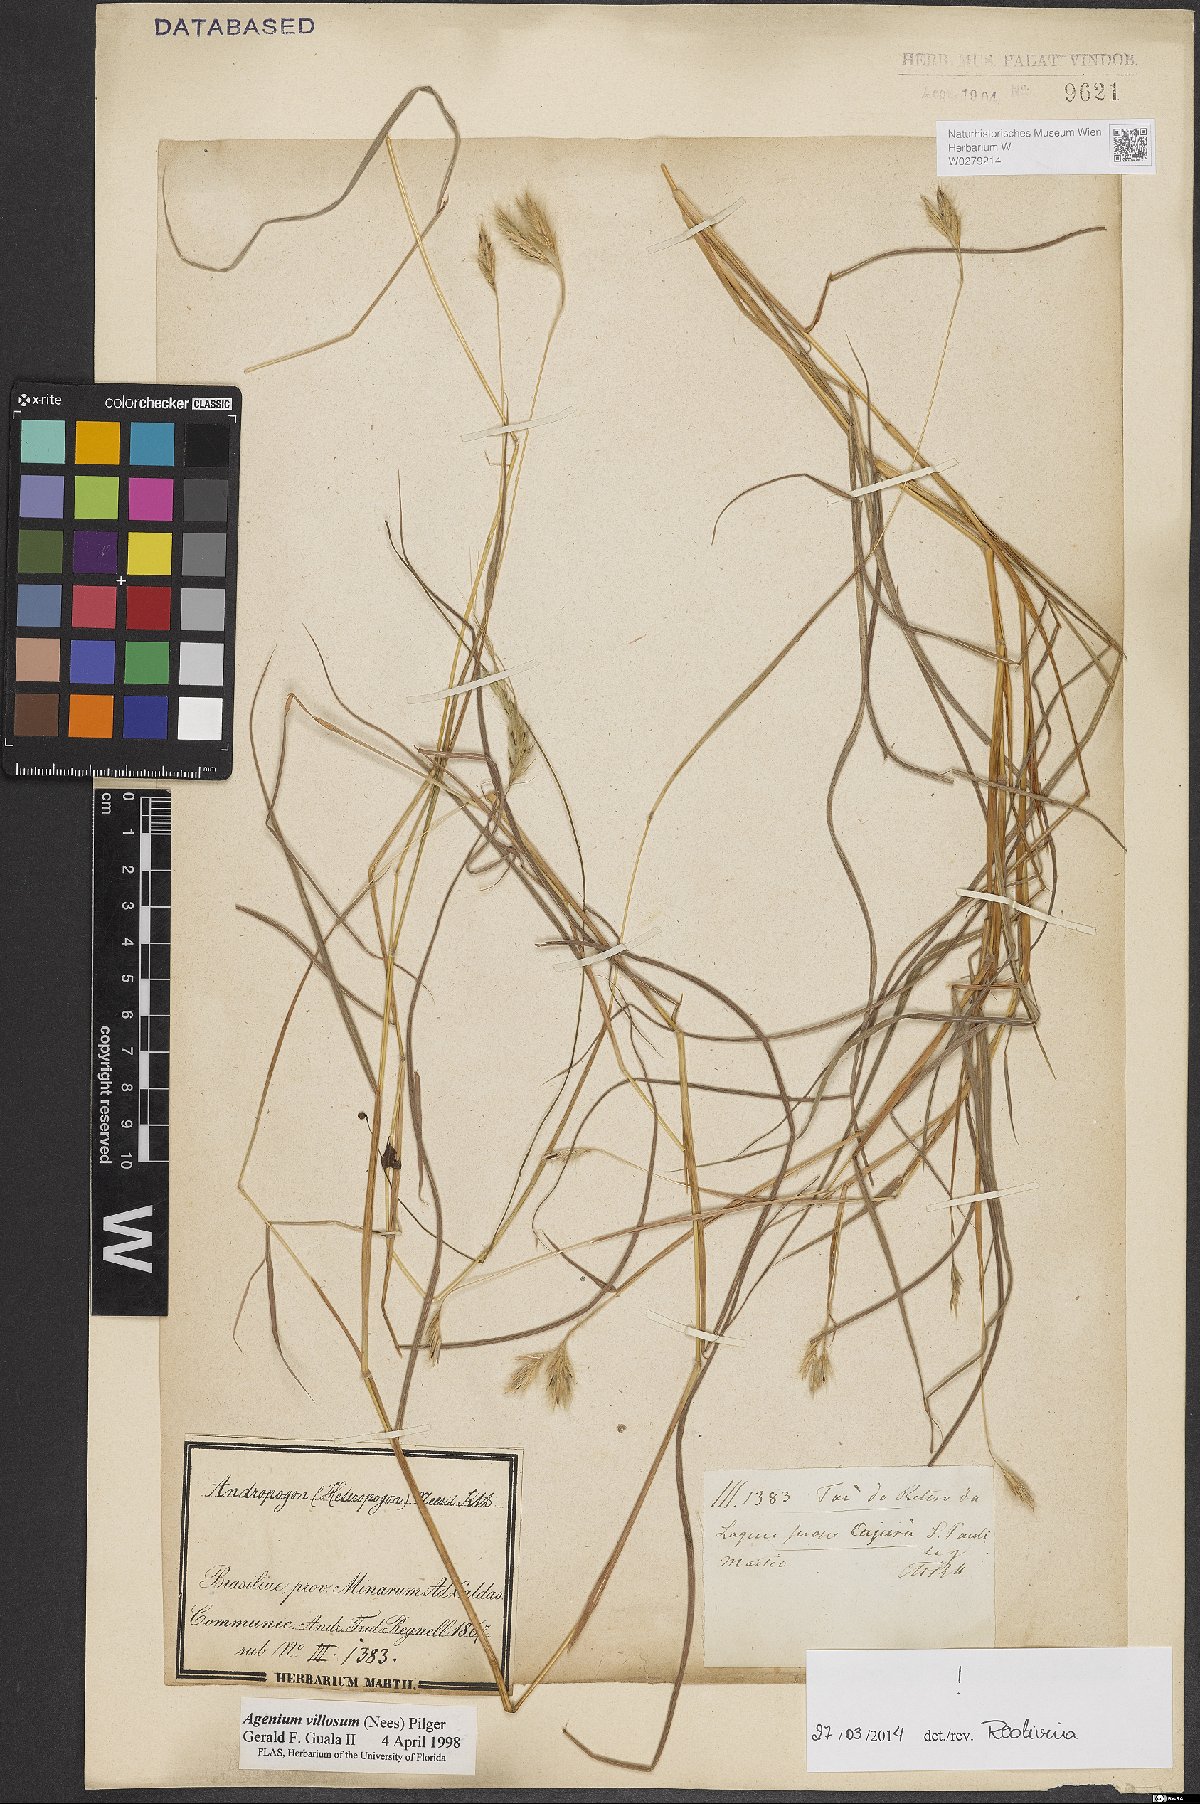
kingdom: Plantae
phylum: Tracheophyta
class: Liliopsida
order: Poales
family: Poaceae
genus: Agenium
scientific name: Agenium villosum
